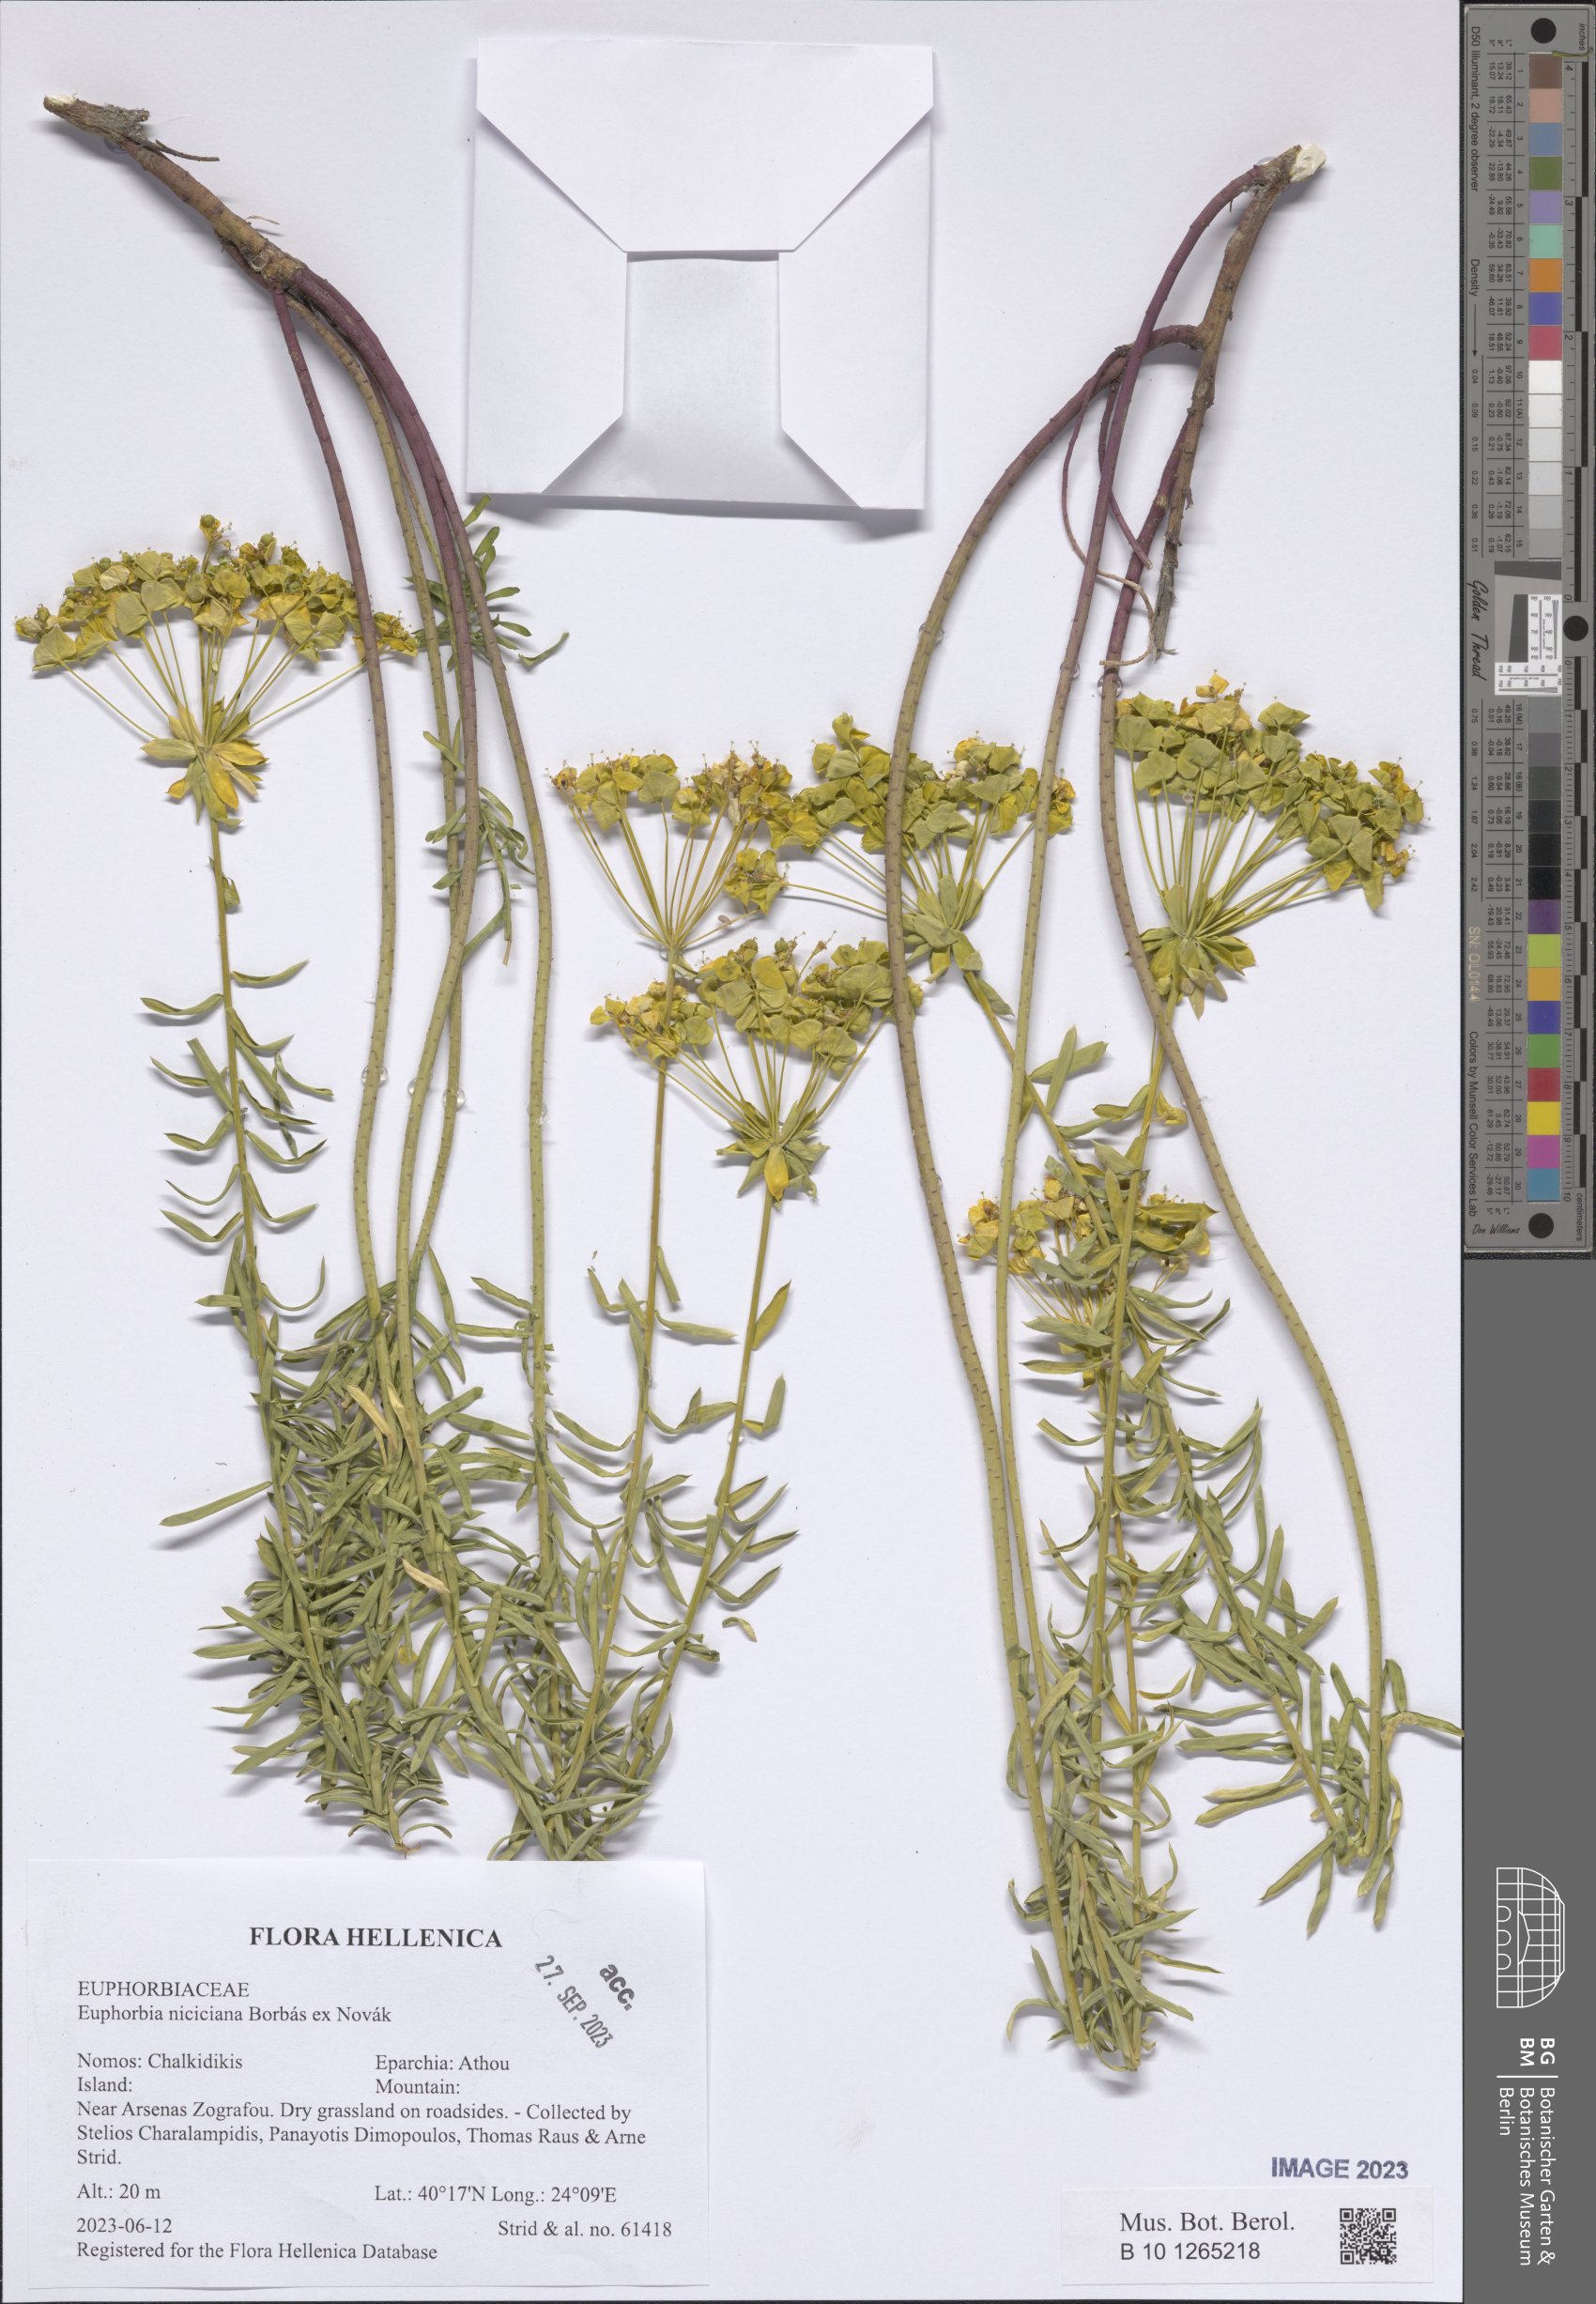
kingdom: Plantae
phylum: Tracheophyta
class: Magnoliopsida
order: Malpighiales
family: Euphorbiaceae
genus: Euphorbia
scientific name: Euphorbia niciciana
